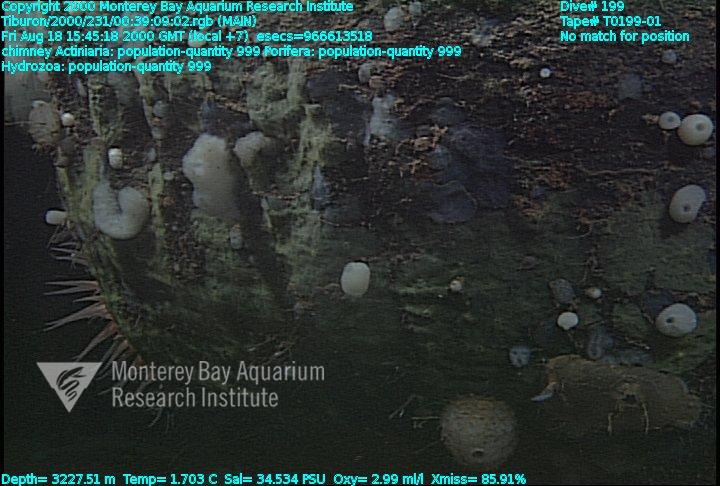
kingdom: Animalia
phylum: Porifera
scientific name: Porifera
